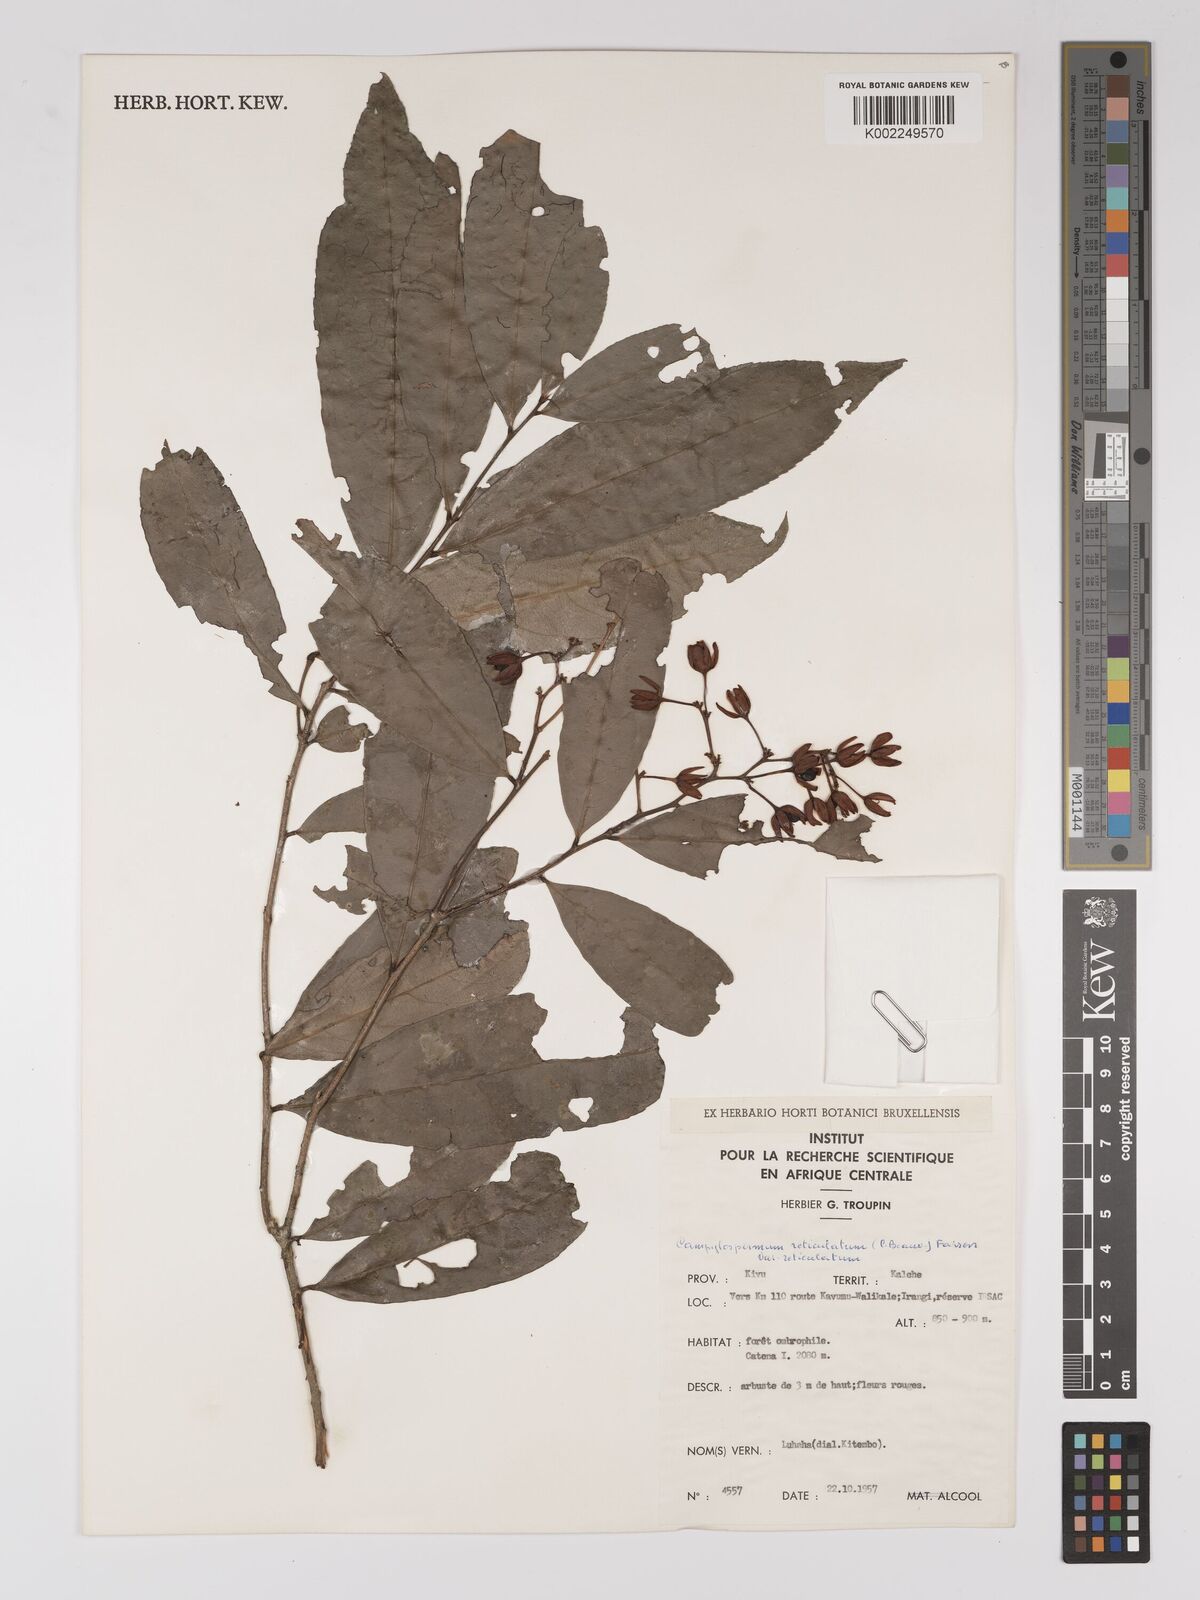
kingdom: Plantae
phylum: Tracheophyta
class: Magnoliopsida
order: Malpighiales
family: Ochnaceae
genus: Campylospermum
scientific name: Campylospermum reticulatum
